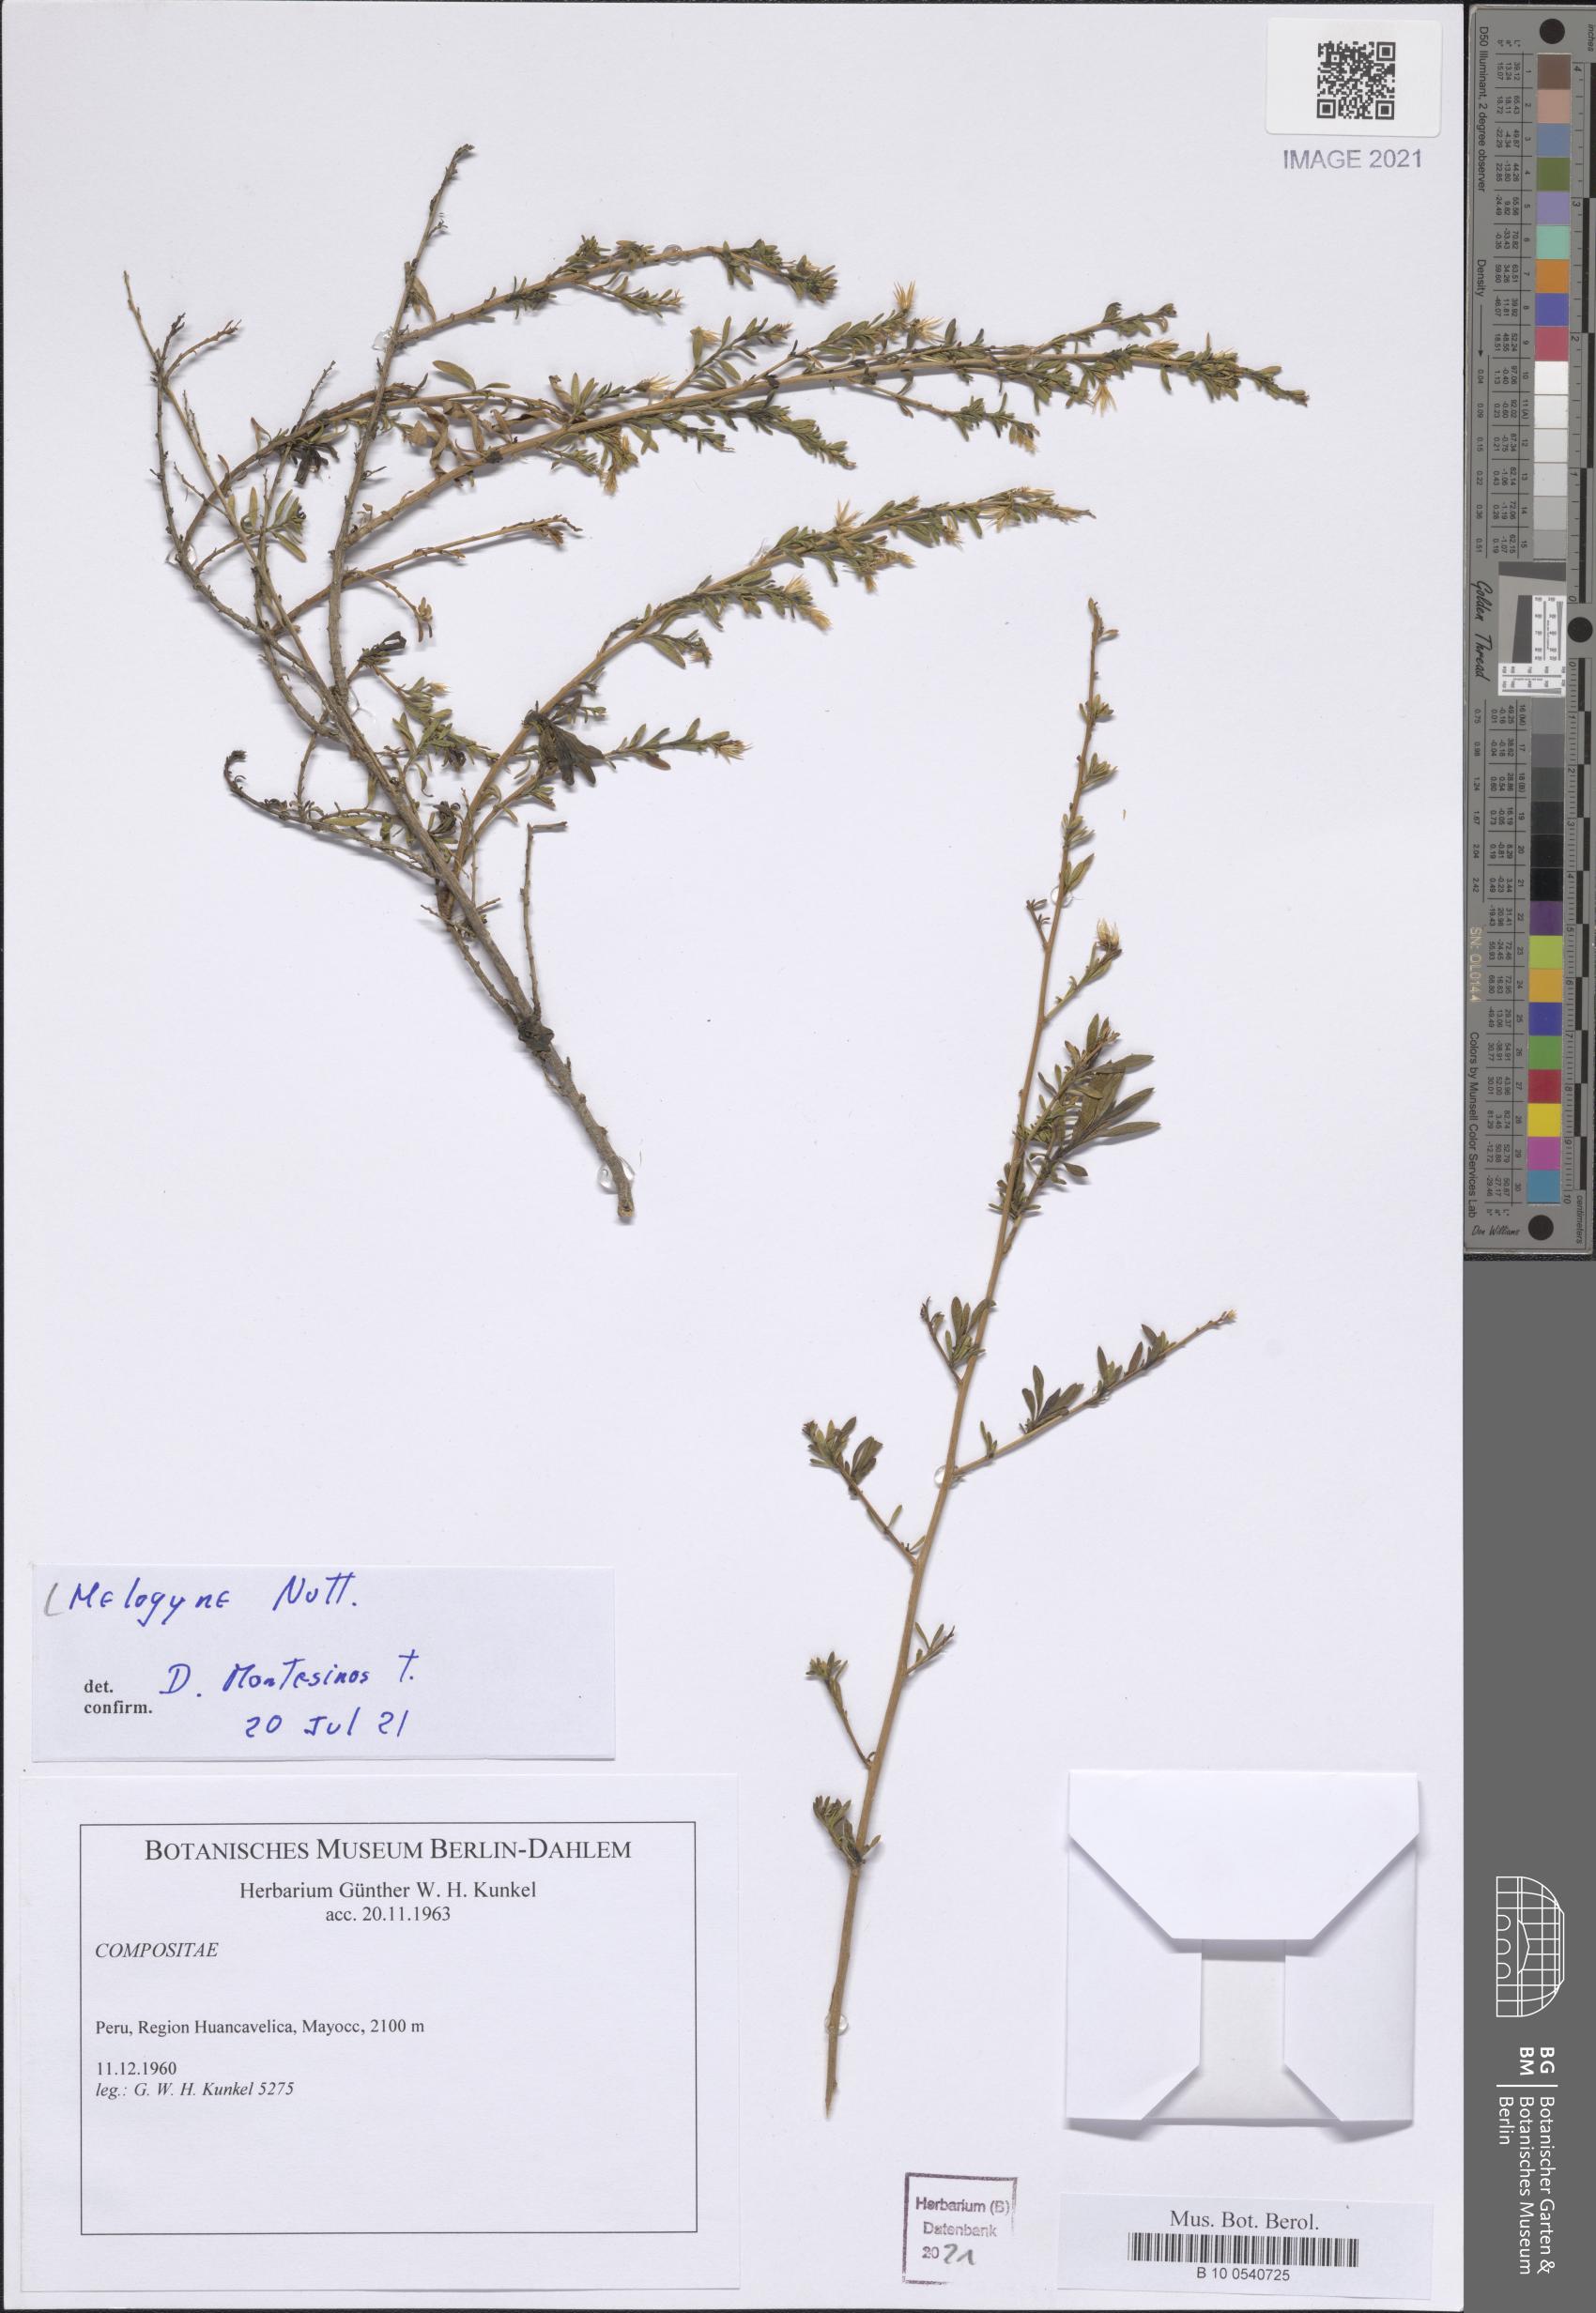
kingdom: Plantae
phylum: Tracheophyta
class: Magnoliopsida
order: Asterales
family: Asteraceae
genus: Helogyne
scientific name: Helogyne
